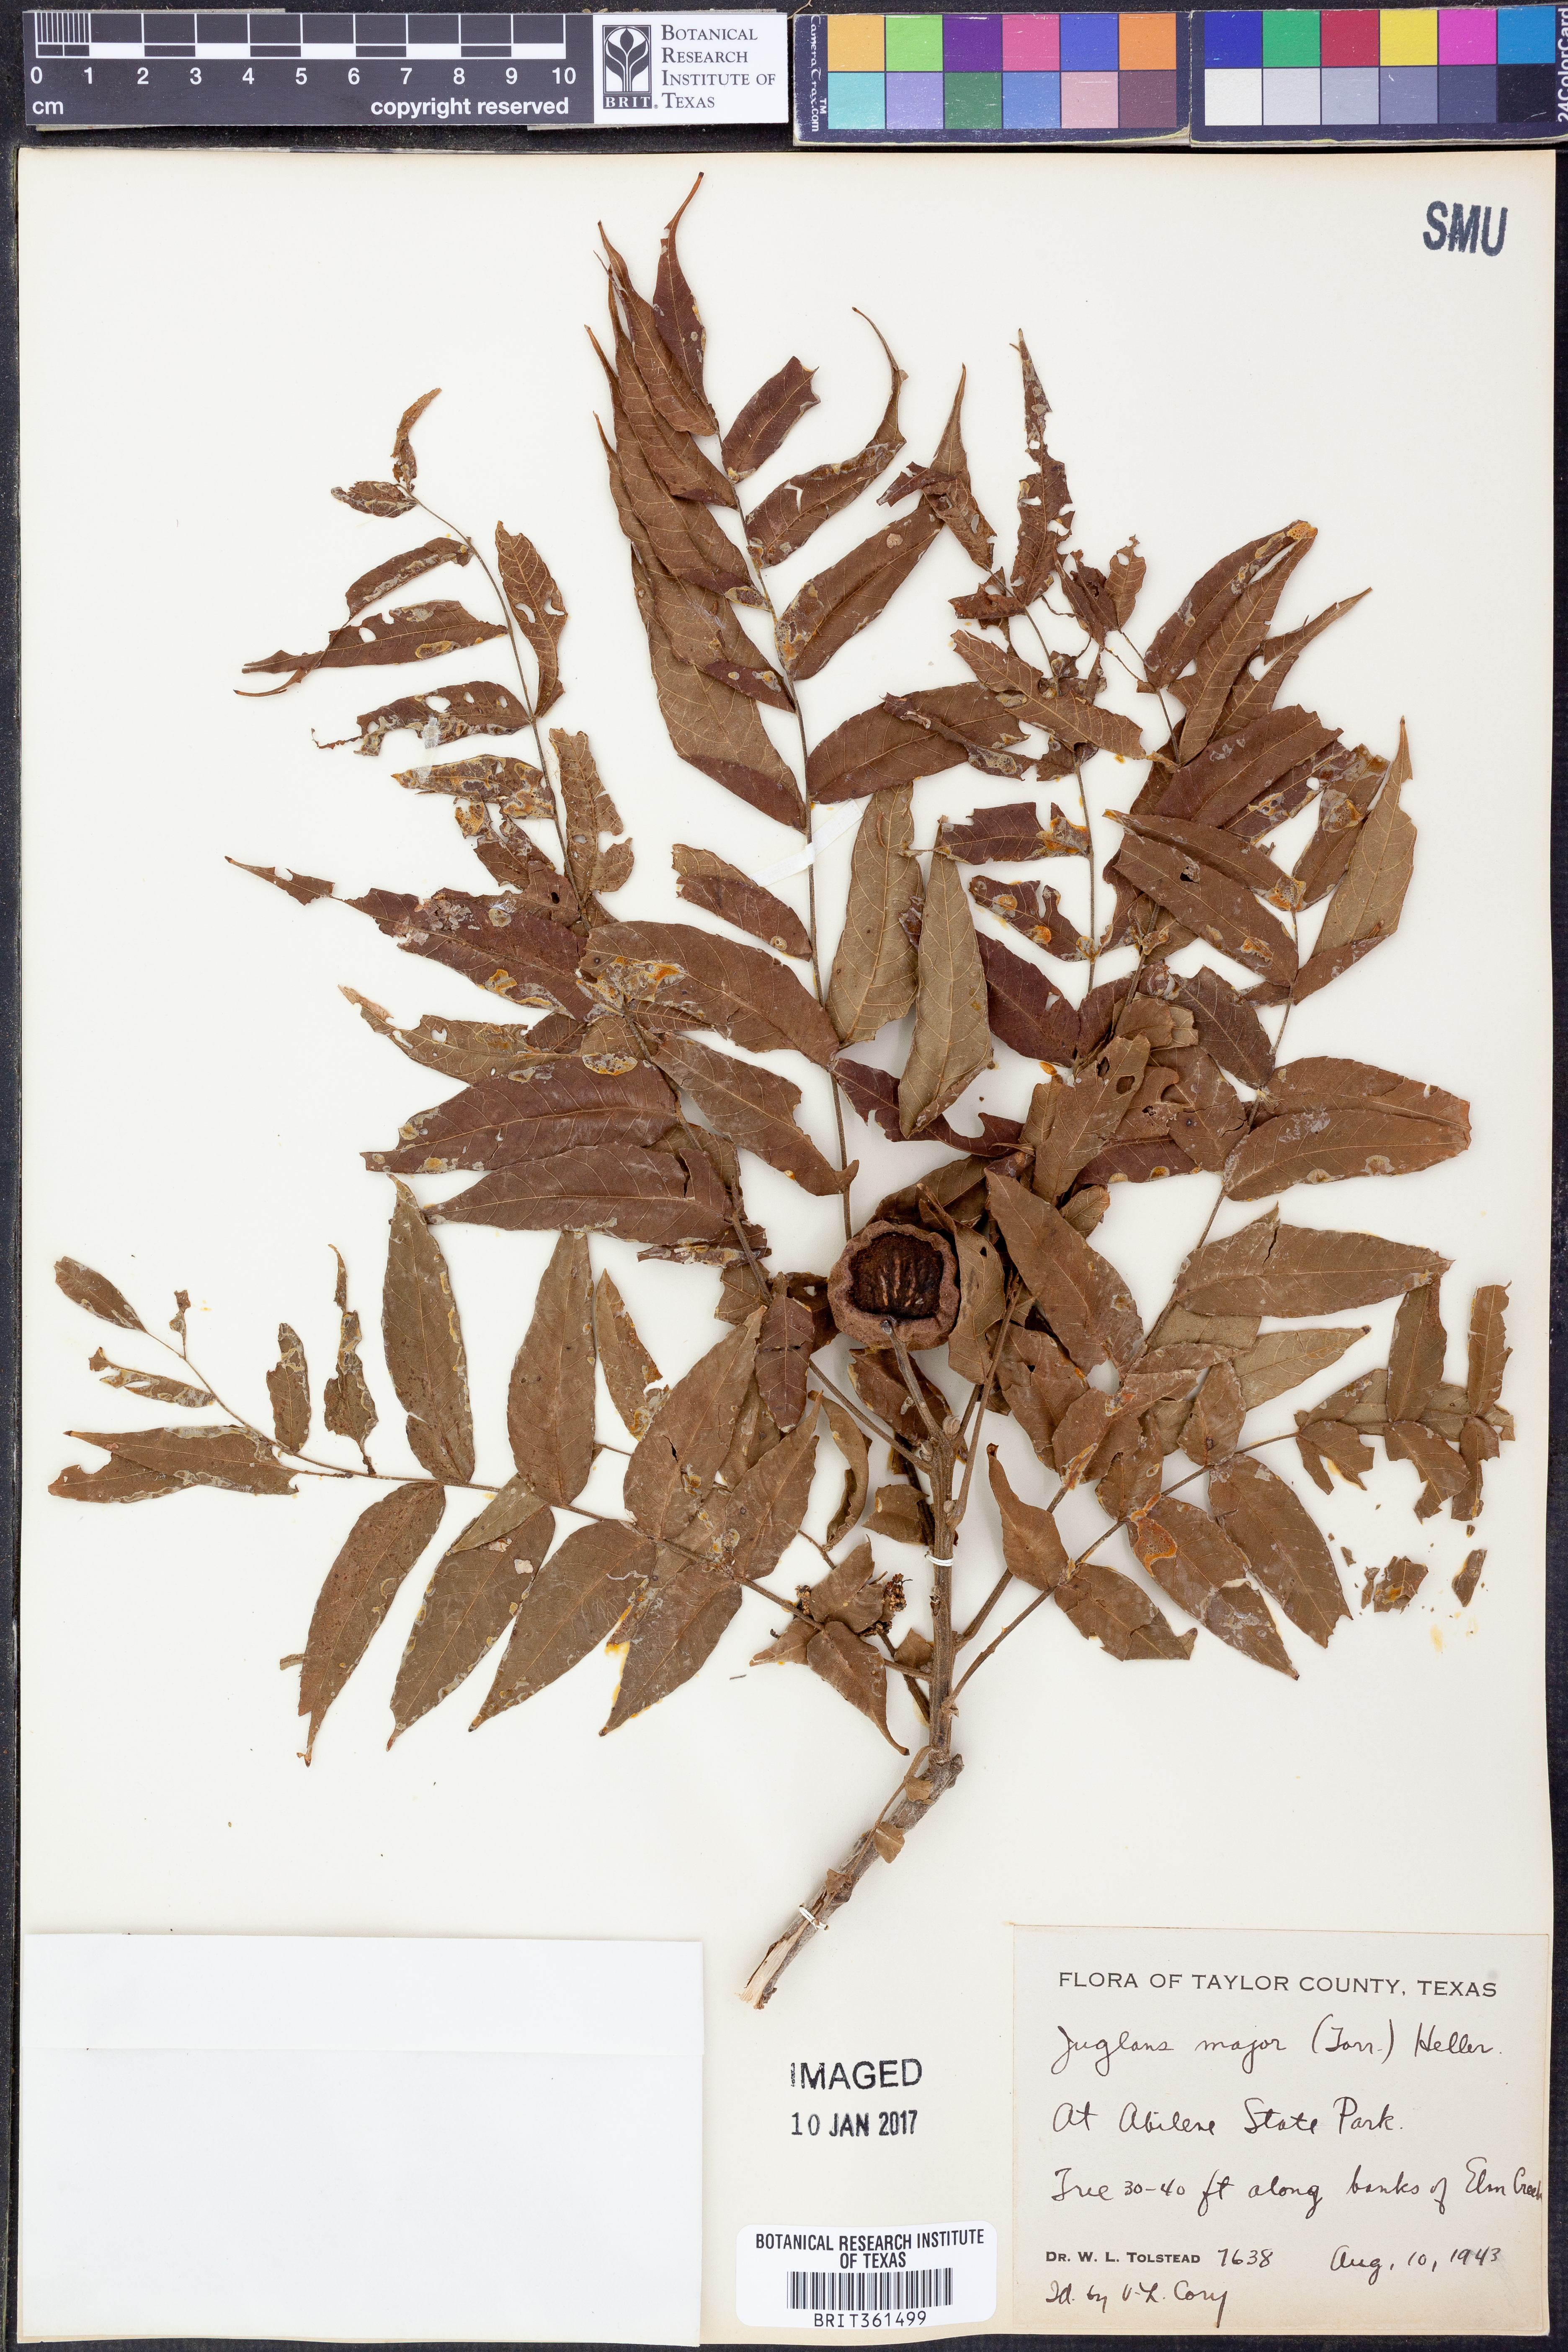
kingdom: Plantae
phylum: Tracheophyta
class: Magnoliopsida
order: Fagales
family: Juglandaceae
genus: Juglans
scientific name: Juglans major
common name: Arizona walnut
